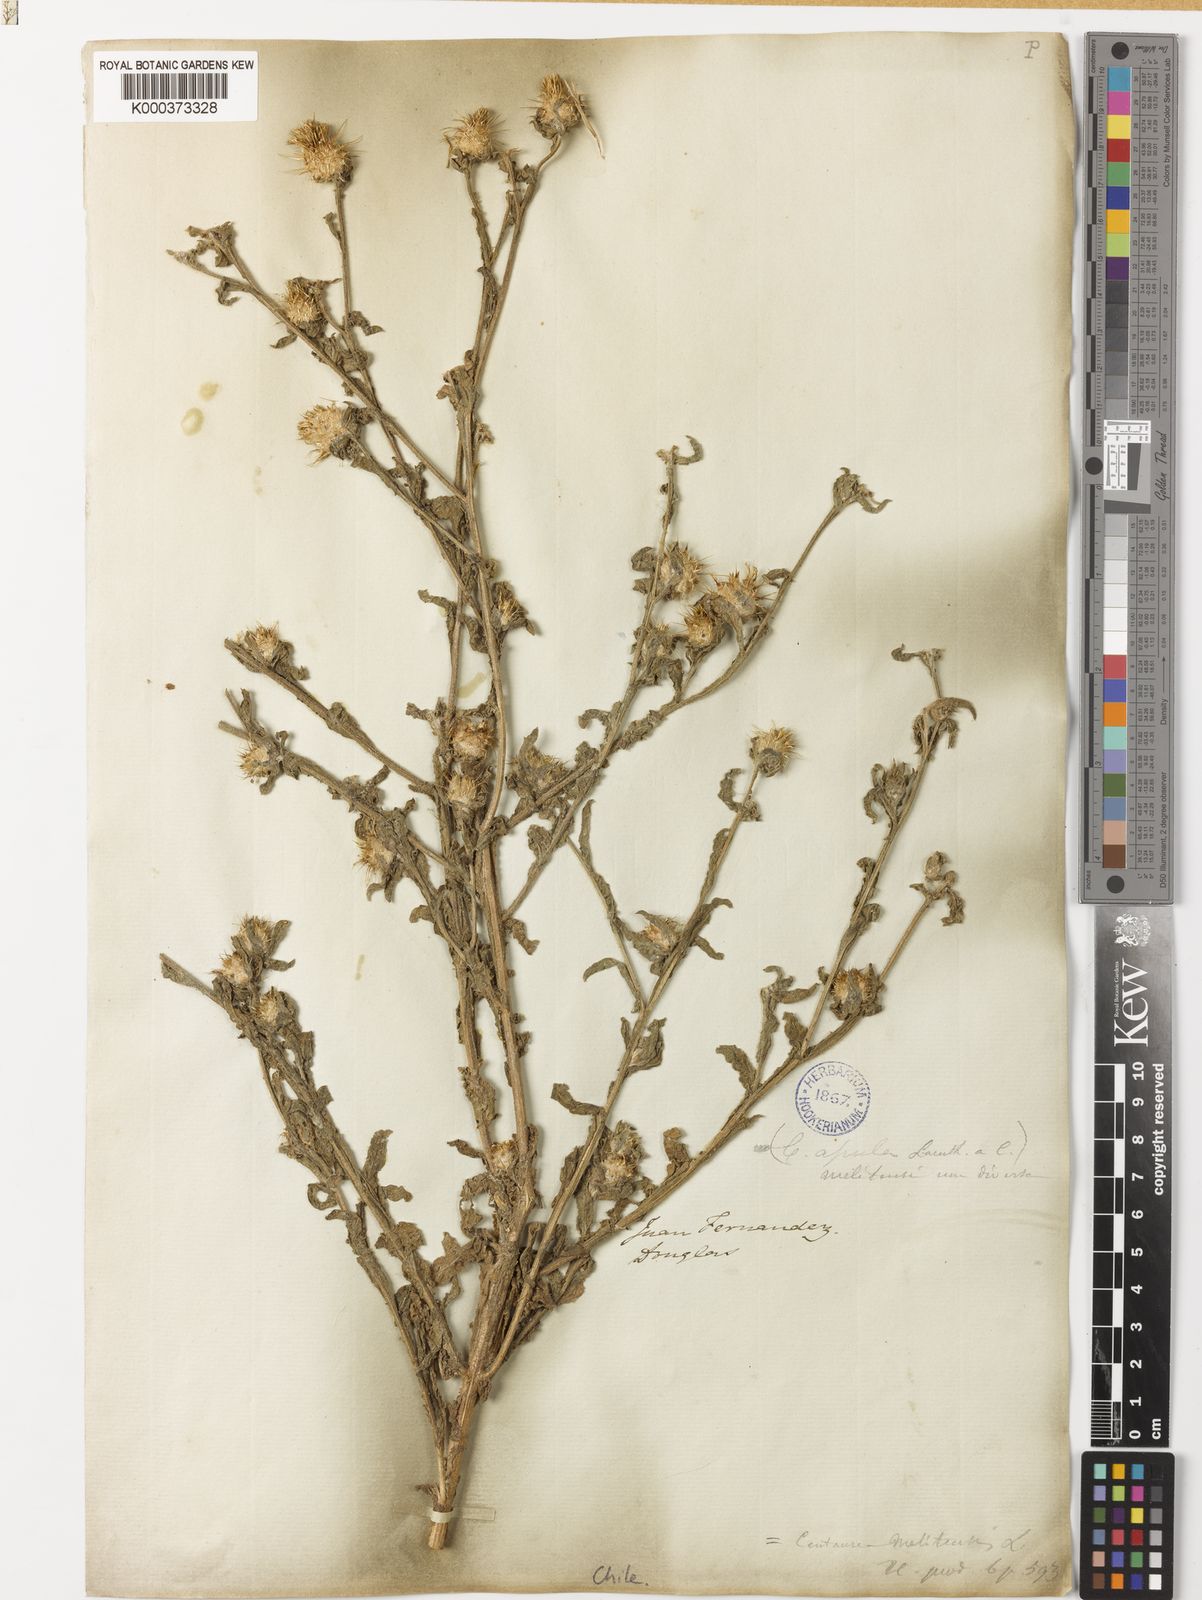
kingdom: Plantae
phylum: Tracheophyta
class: Magnoliopsida
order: Asterales
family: Asteraceae
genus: Centaurea
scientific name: Centaurea melitensis
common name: Maltese star-thistle
